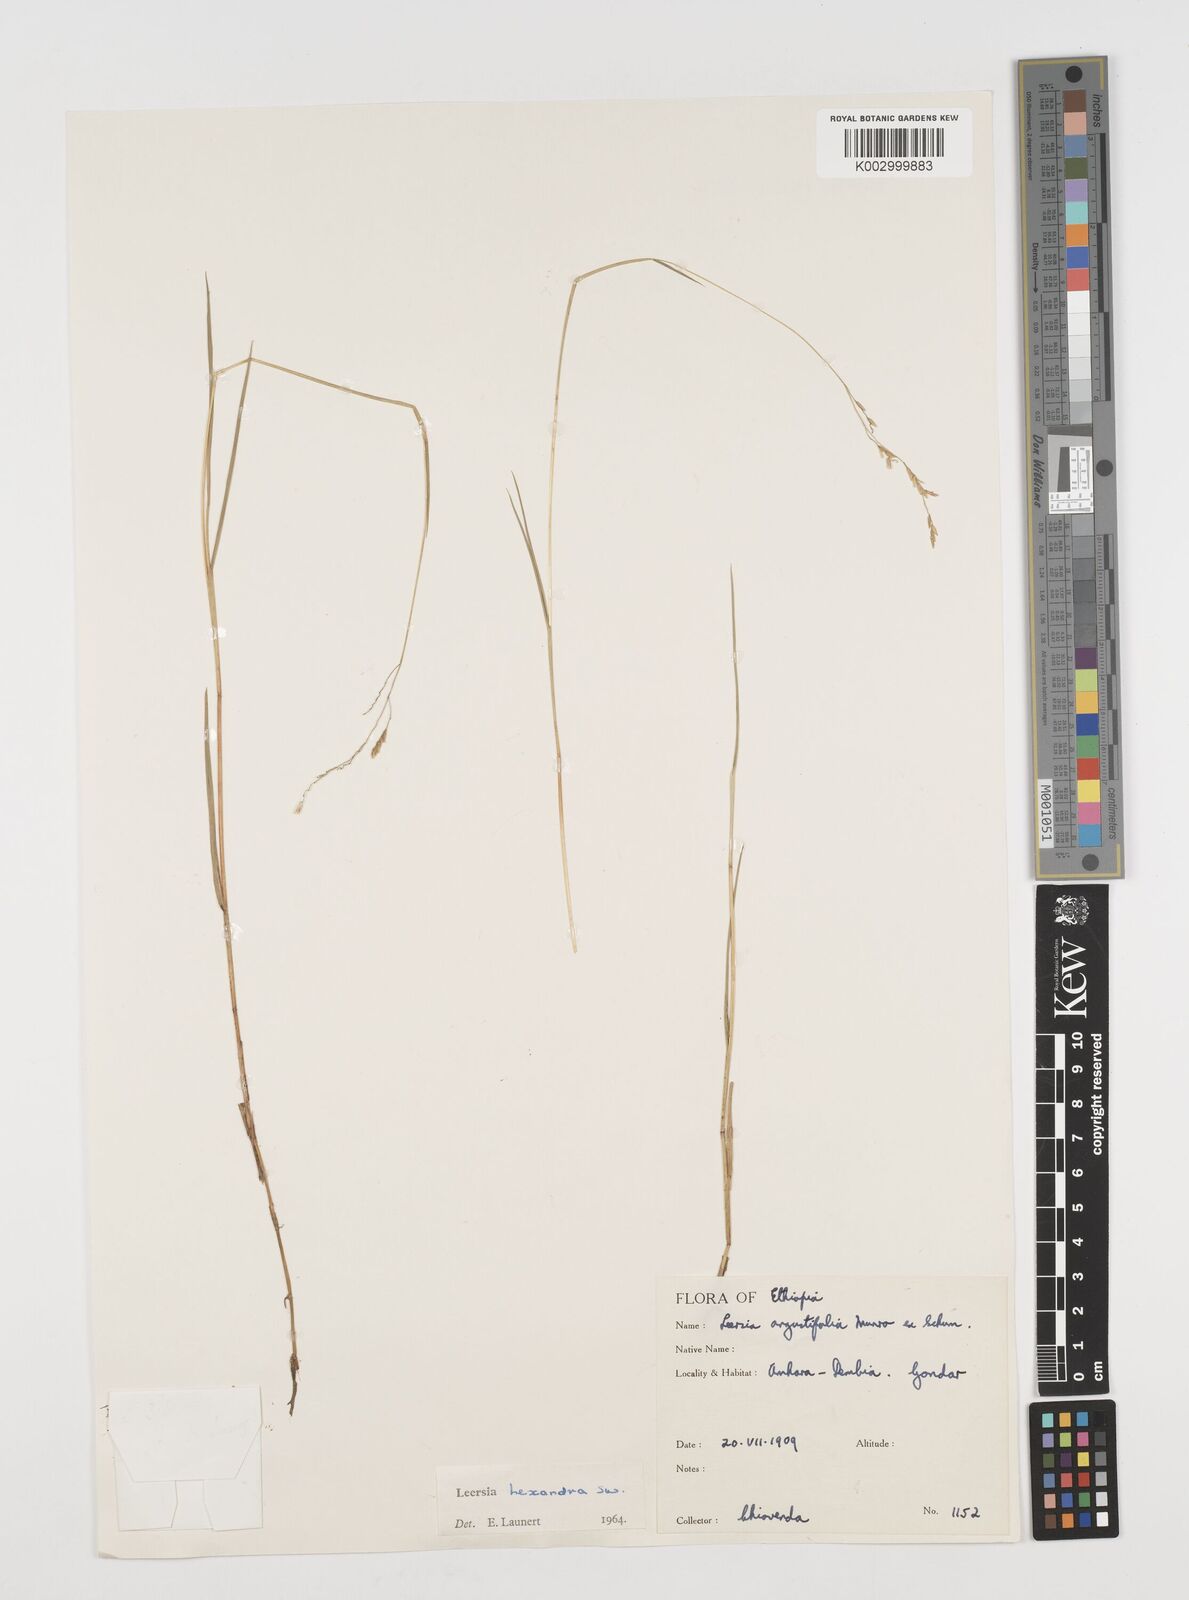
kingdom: Plantae
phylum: Tracheophyta
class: Liliopsida
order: Poales
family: Poaceae
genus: Leersia
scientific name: Leersia hexandra
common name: Southern cut grass
